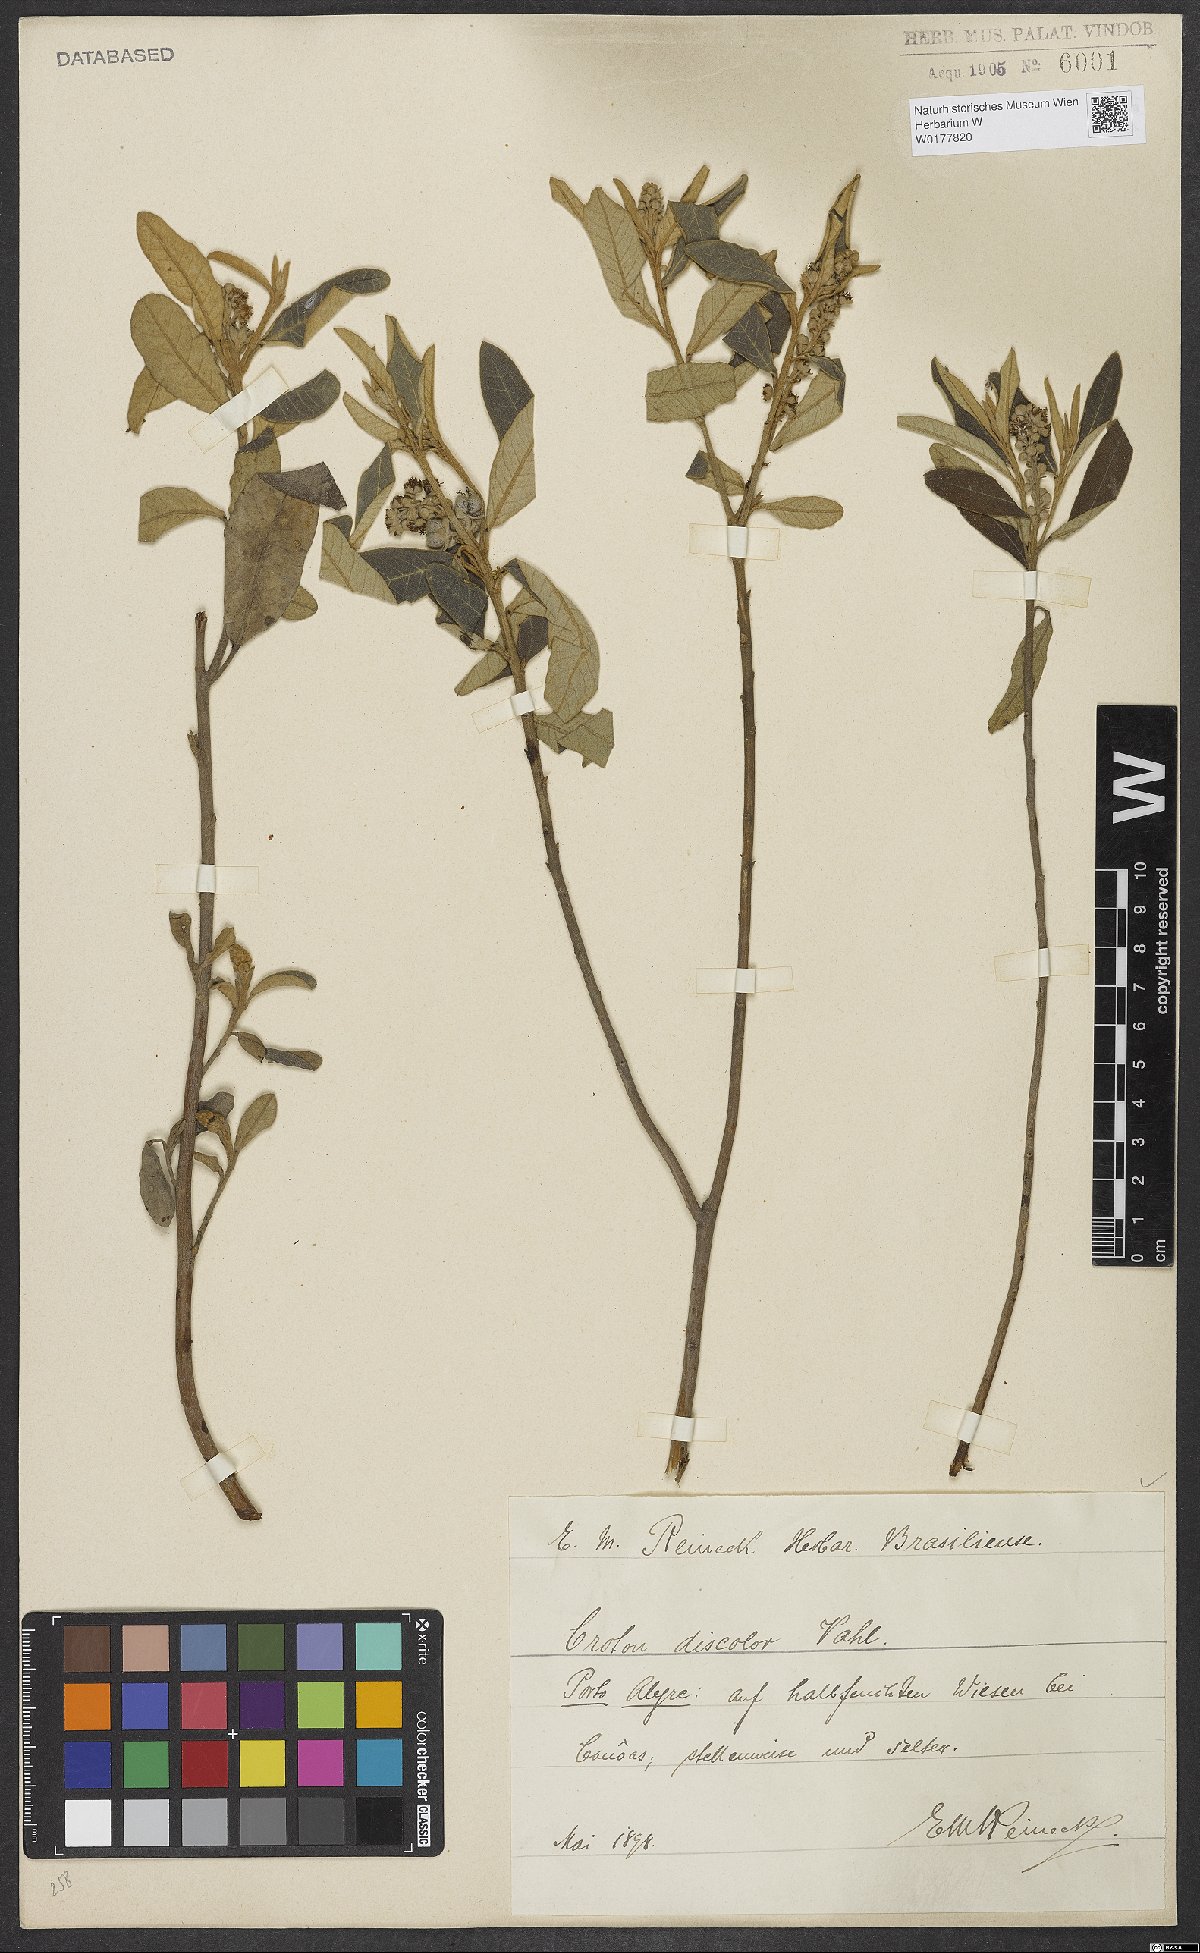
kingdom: Plantae
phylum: Tracheophyta
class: Magnoliopsida
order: Malpighiales
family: Euphorbiaceae
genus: Croton
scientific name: Croton discolor
